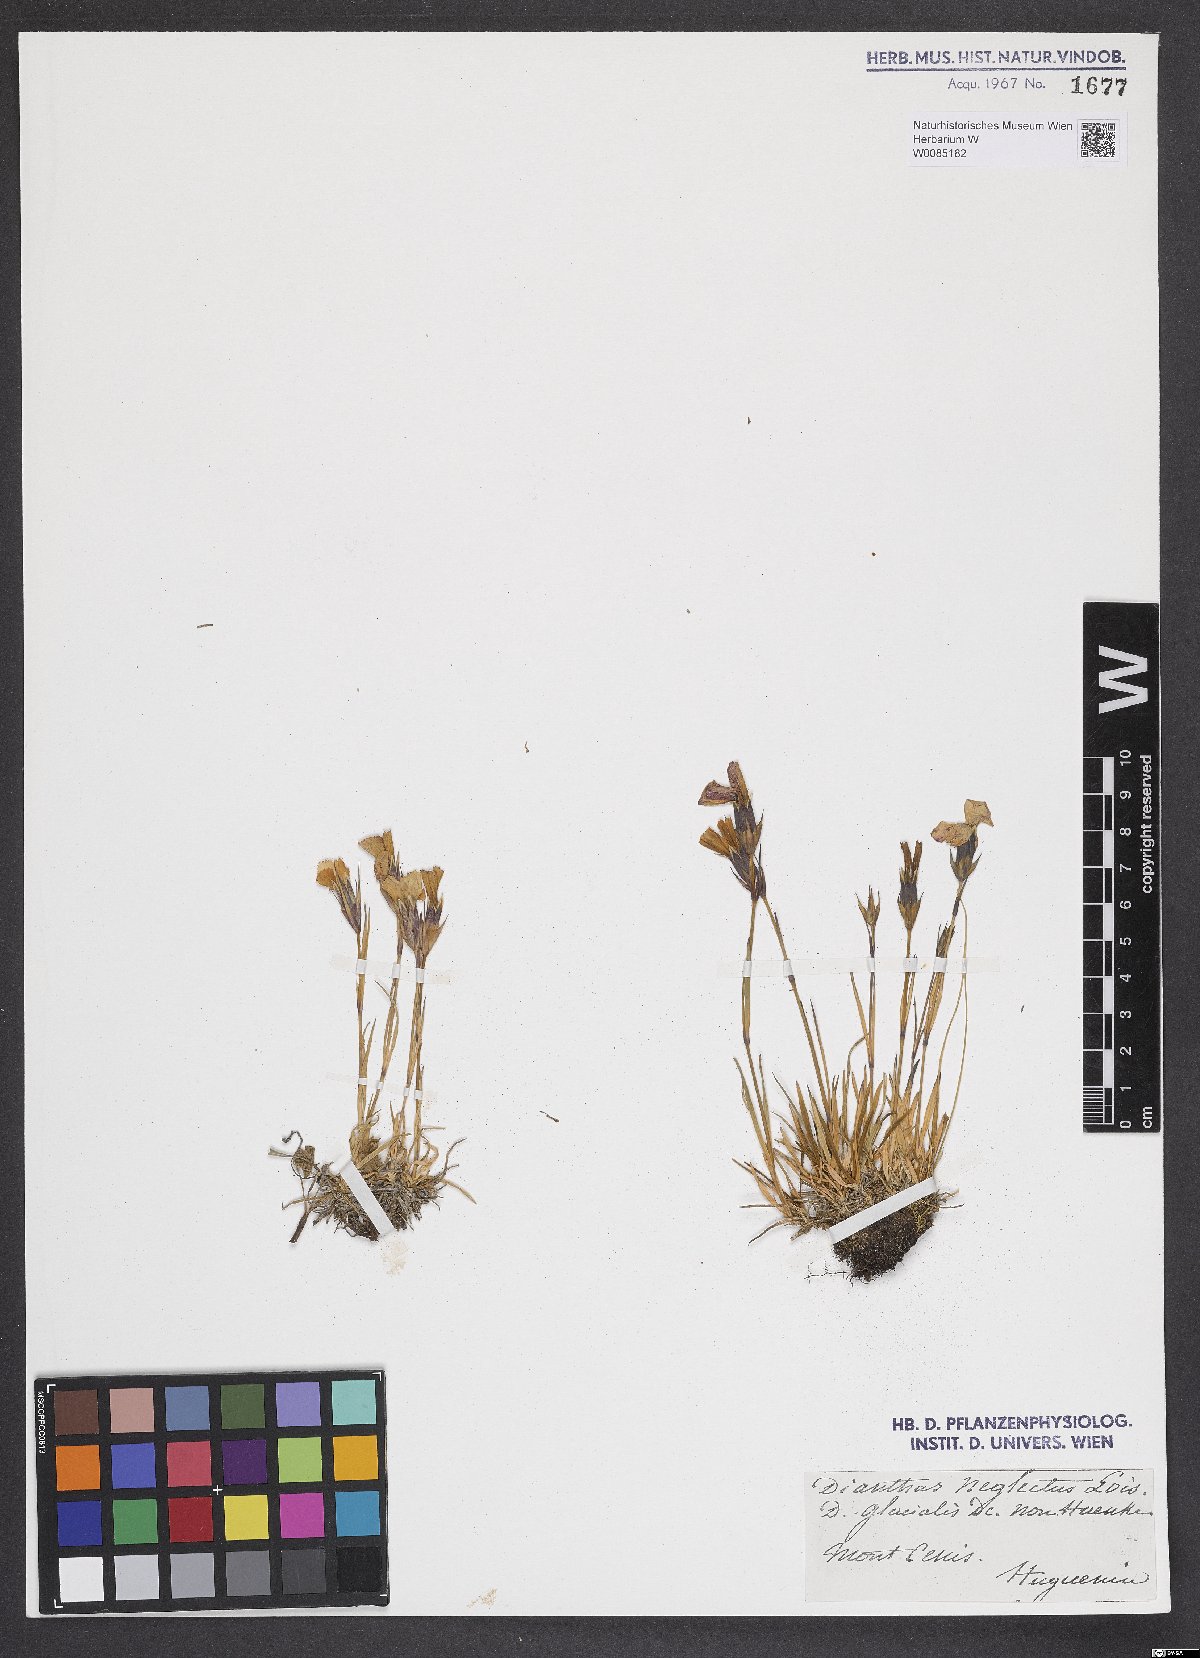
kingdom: Plantae
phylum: Tracheophyta
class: Magnoliopsida
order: Caryophyllales
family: Caryophyllaceae
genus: Dianthus
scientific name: Dianthus pavonius
